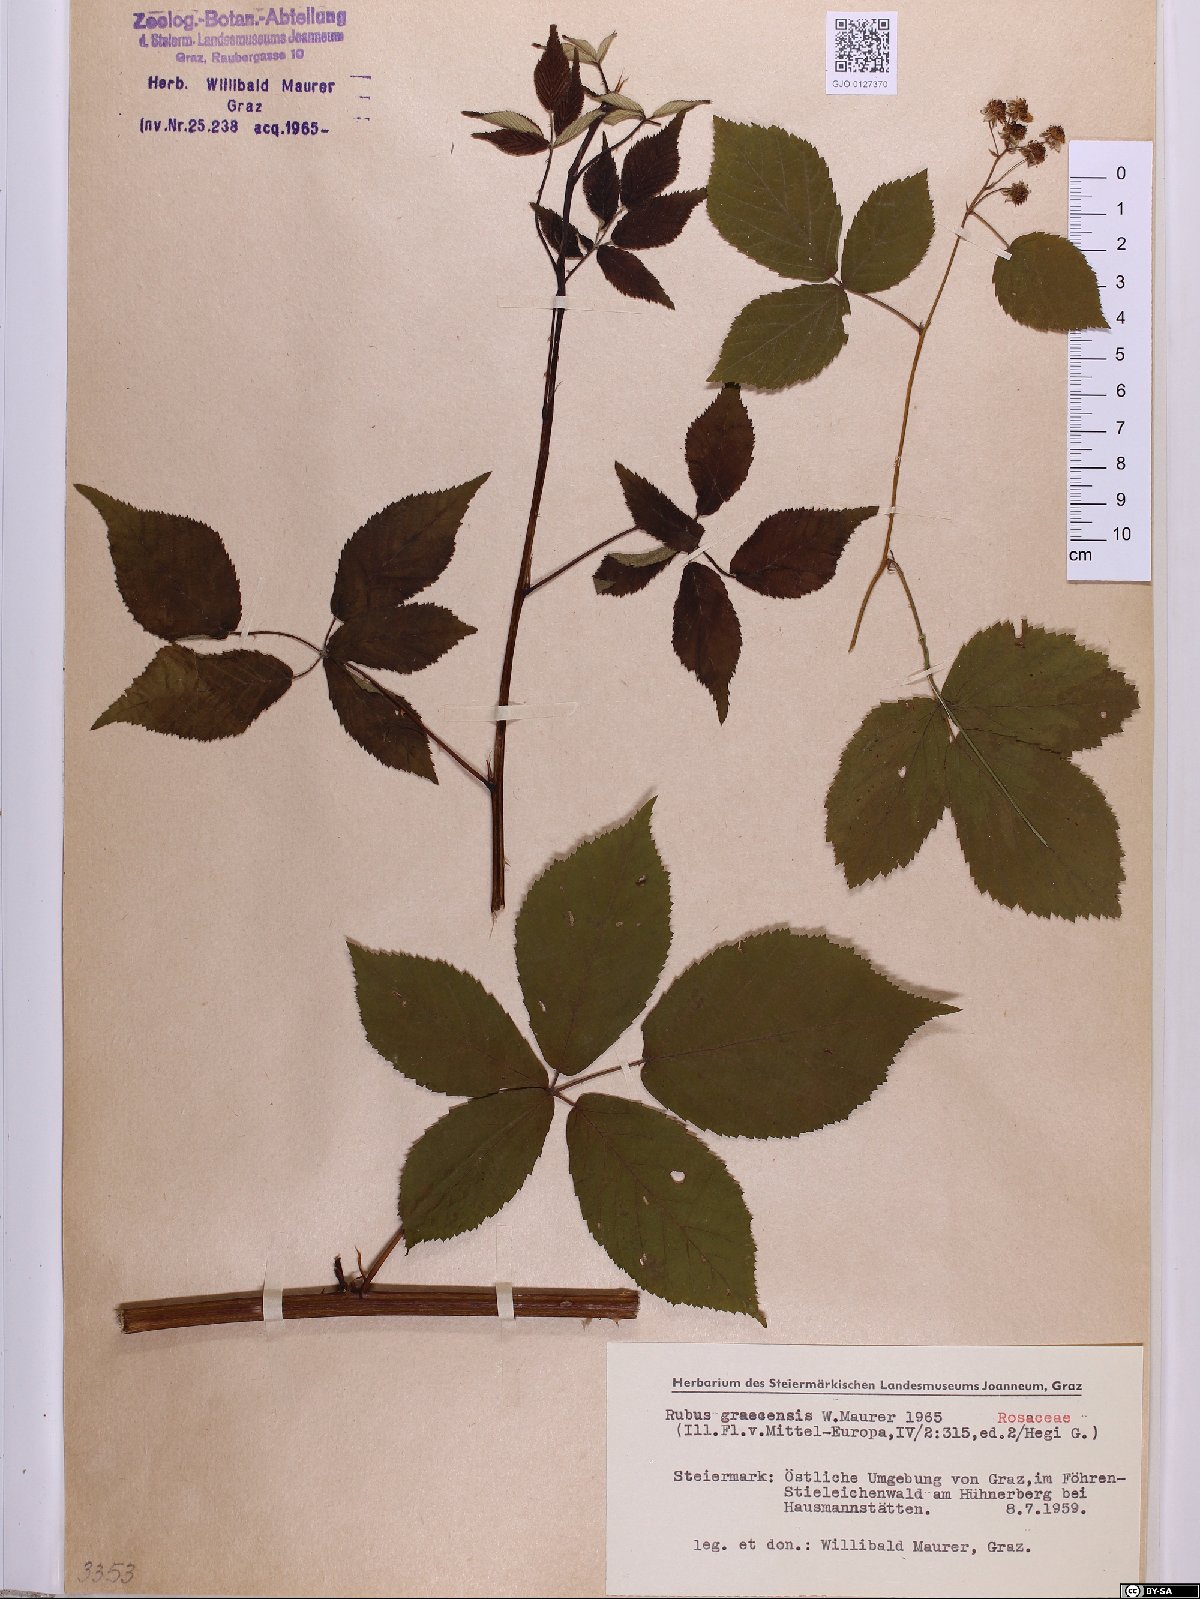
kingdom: Plantae
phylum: Tracheophyta
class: Magnoliopsida
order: Rosales
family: Rosaceae
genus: Rubus
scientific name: Rubus graecensis
